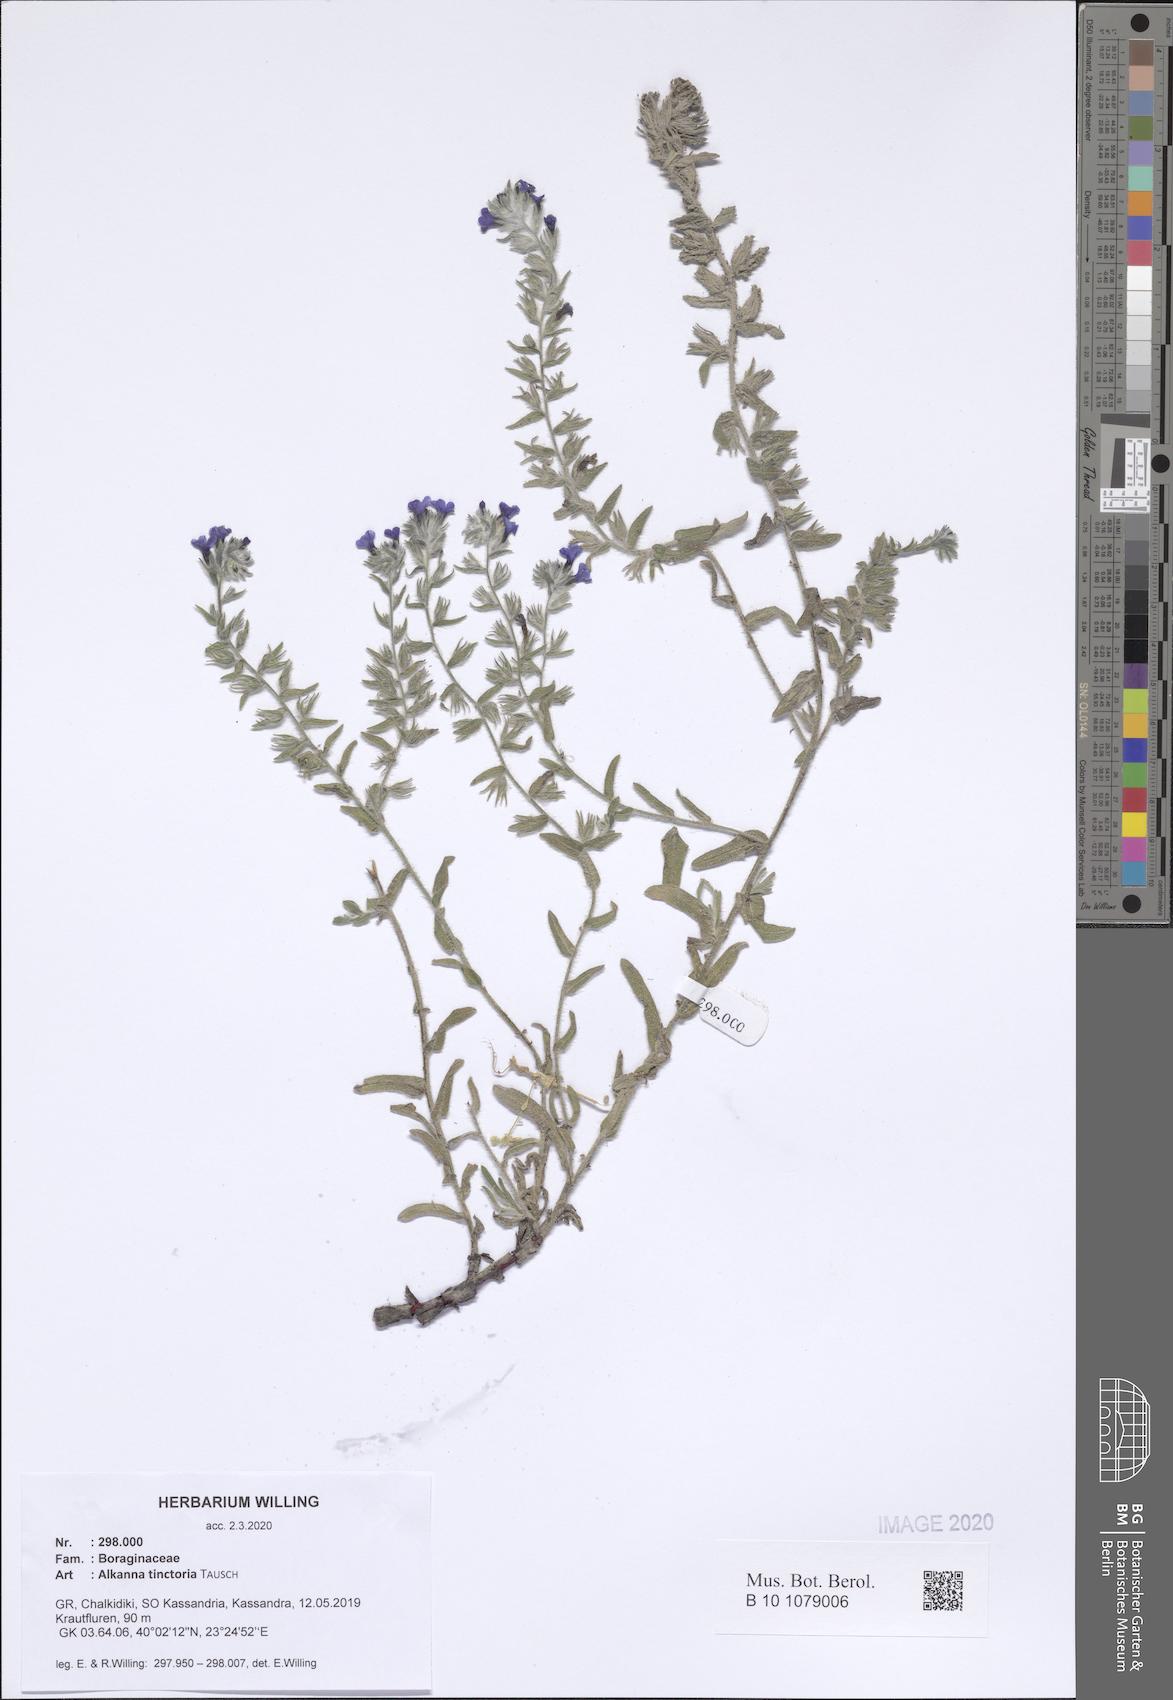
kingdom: Plantae
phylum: Tracheophyta
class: Magnoliopsida
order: Boraginales
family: Boraginaceae
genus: Alkanna
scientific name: Alkanna tinctoria
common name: Dyer's-alkanet
